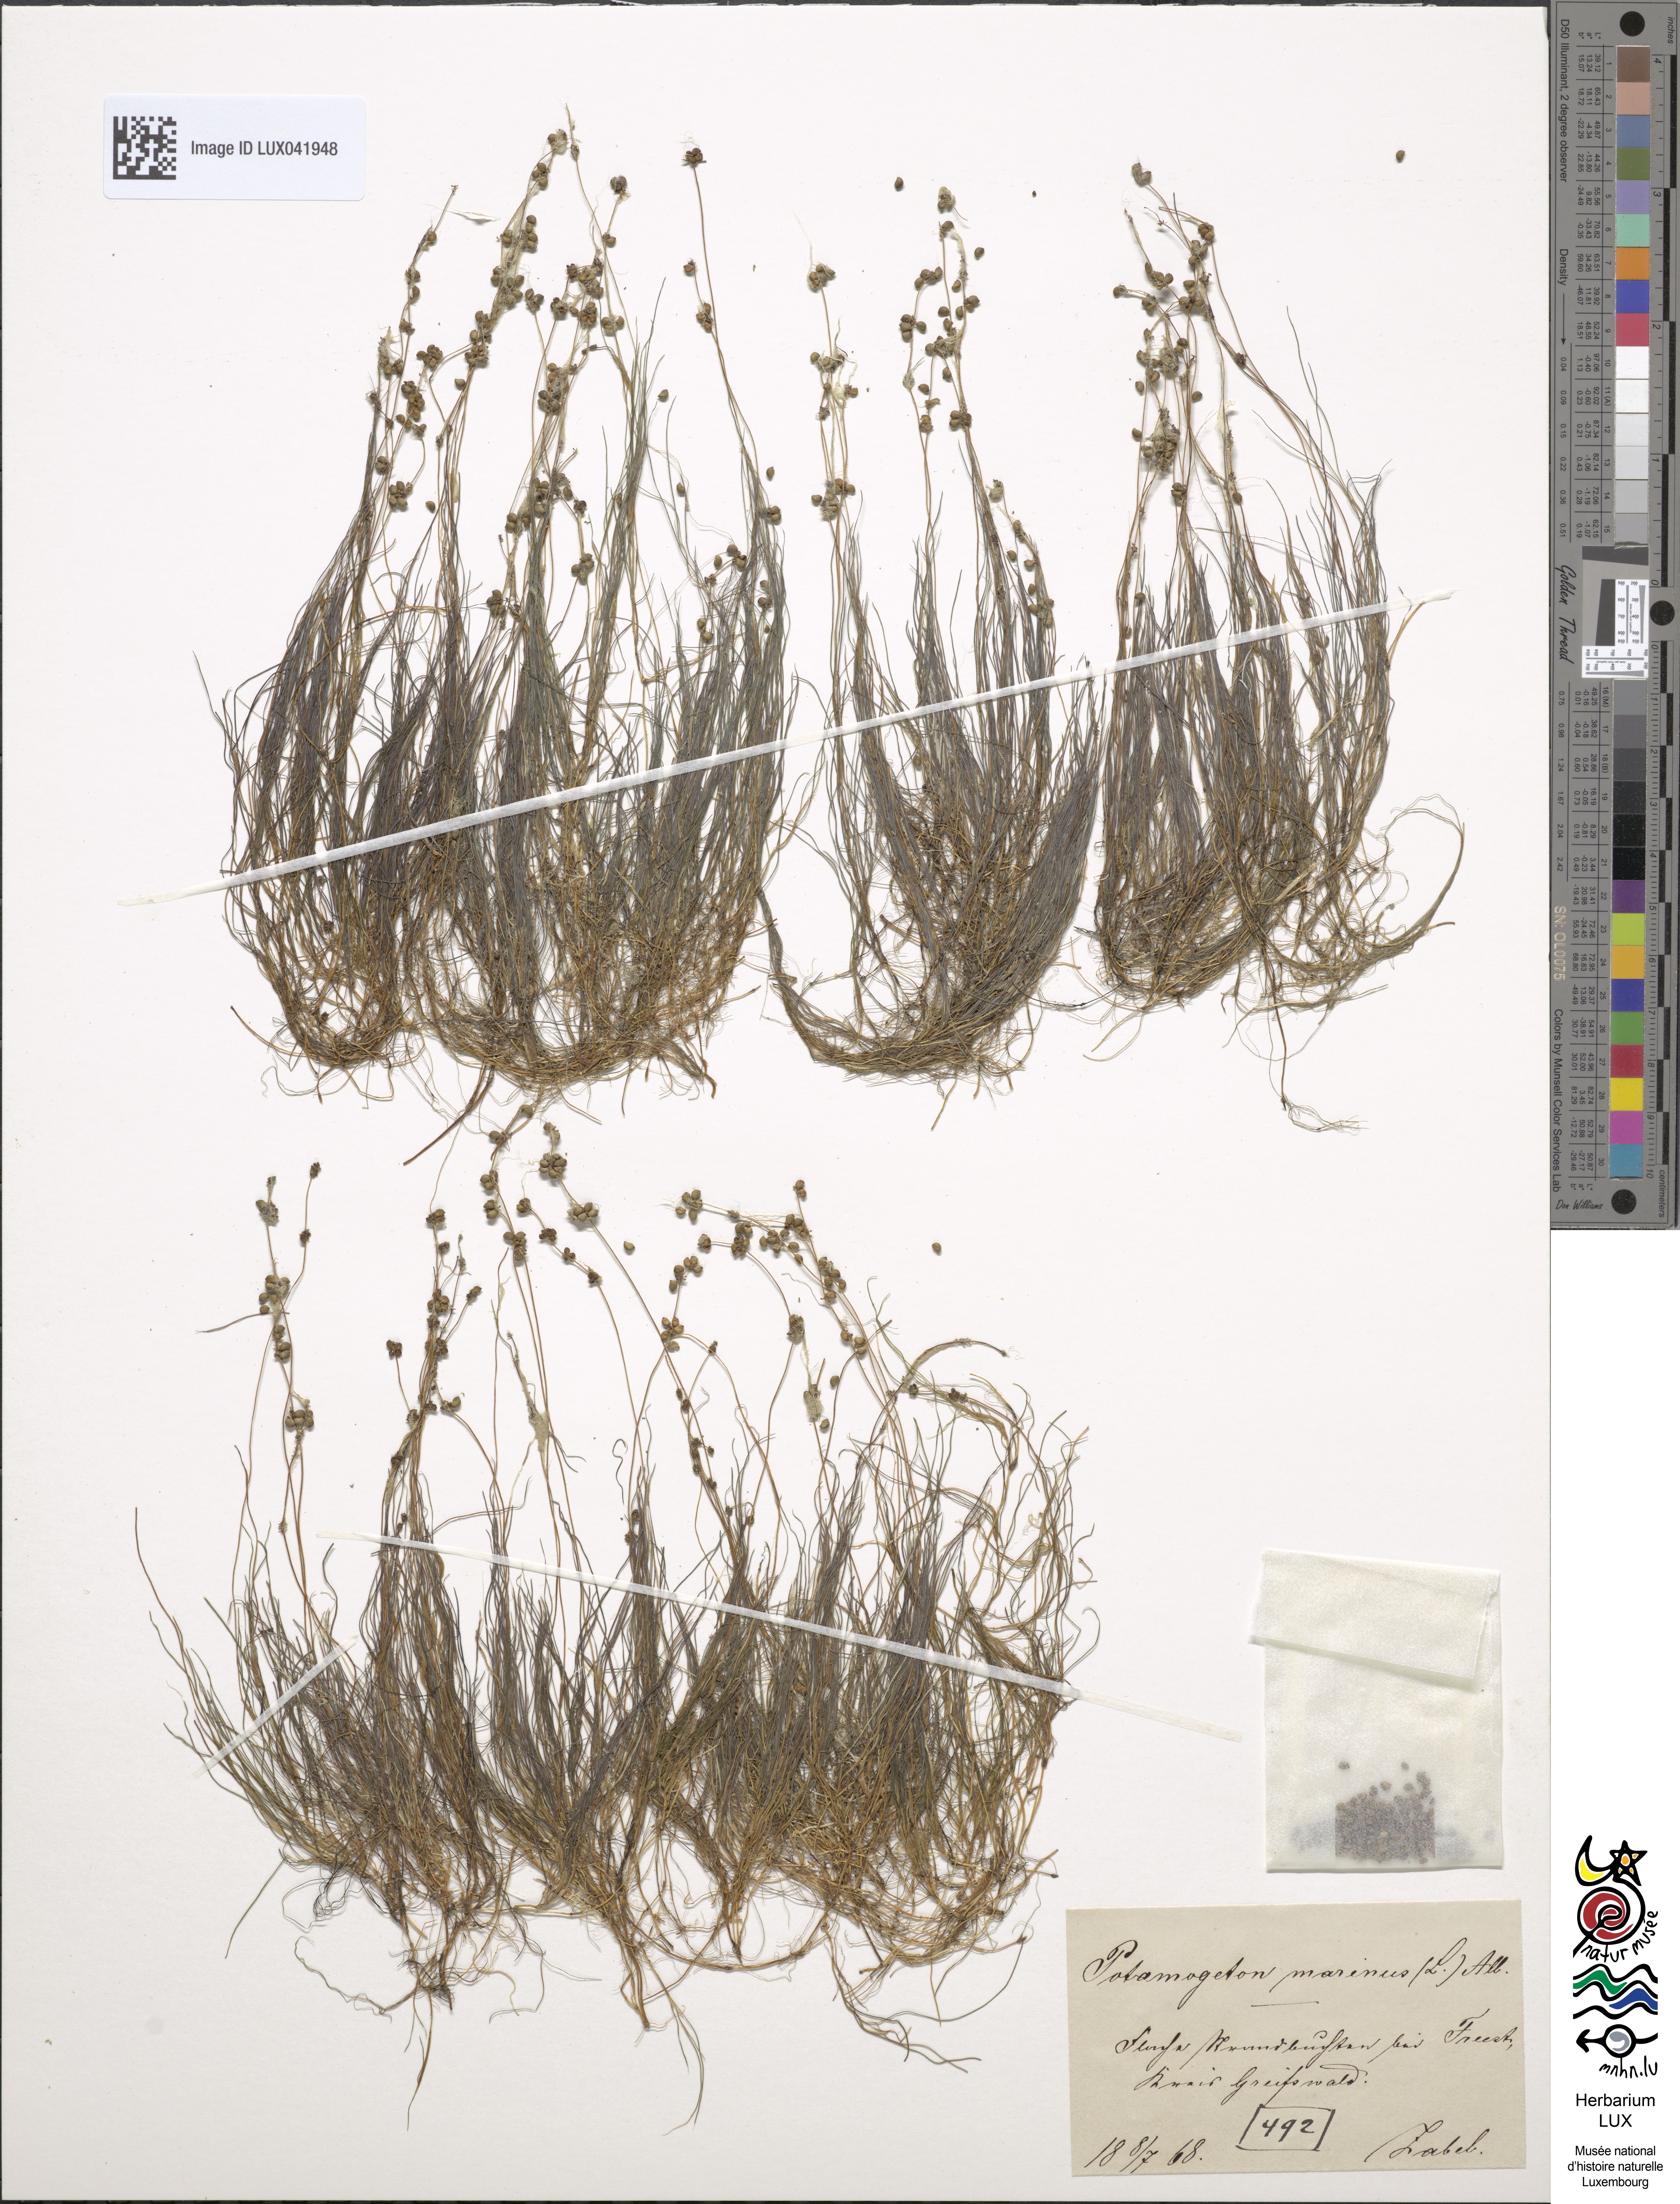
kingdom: Plantae
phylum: Tracheophyta
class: Liliopsida
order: Alismatales
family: Potamogetonaceae
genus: Stuckenia
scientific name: Stuckenia filiformis
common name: Alpine thread-leaved pondweed
